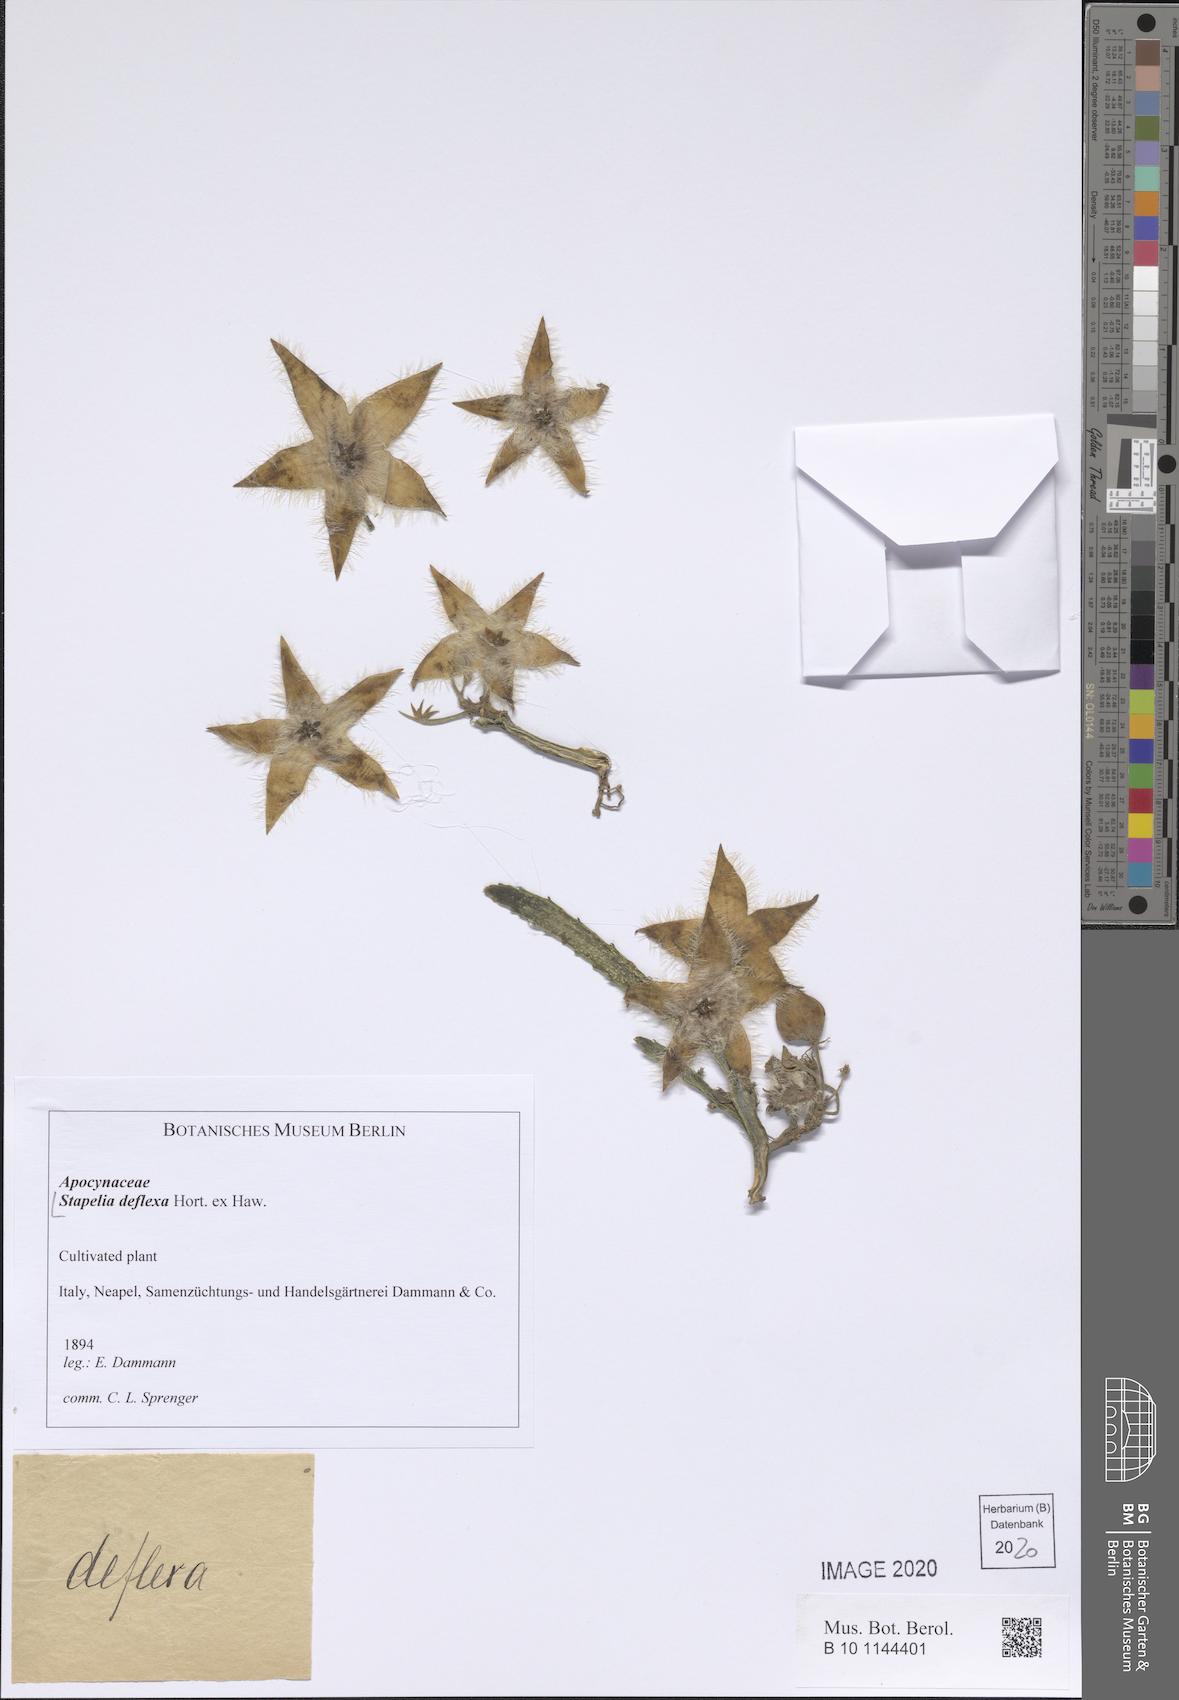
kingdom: Plantae
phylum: Tracheophyta
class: Magnoliopsida
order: Gentianales
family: Apocynaceae
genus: Ceropegia
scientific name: Ceropegia mixta
